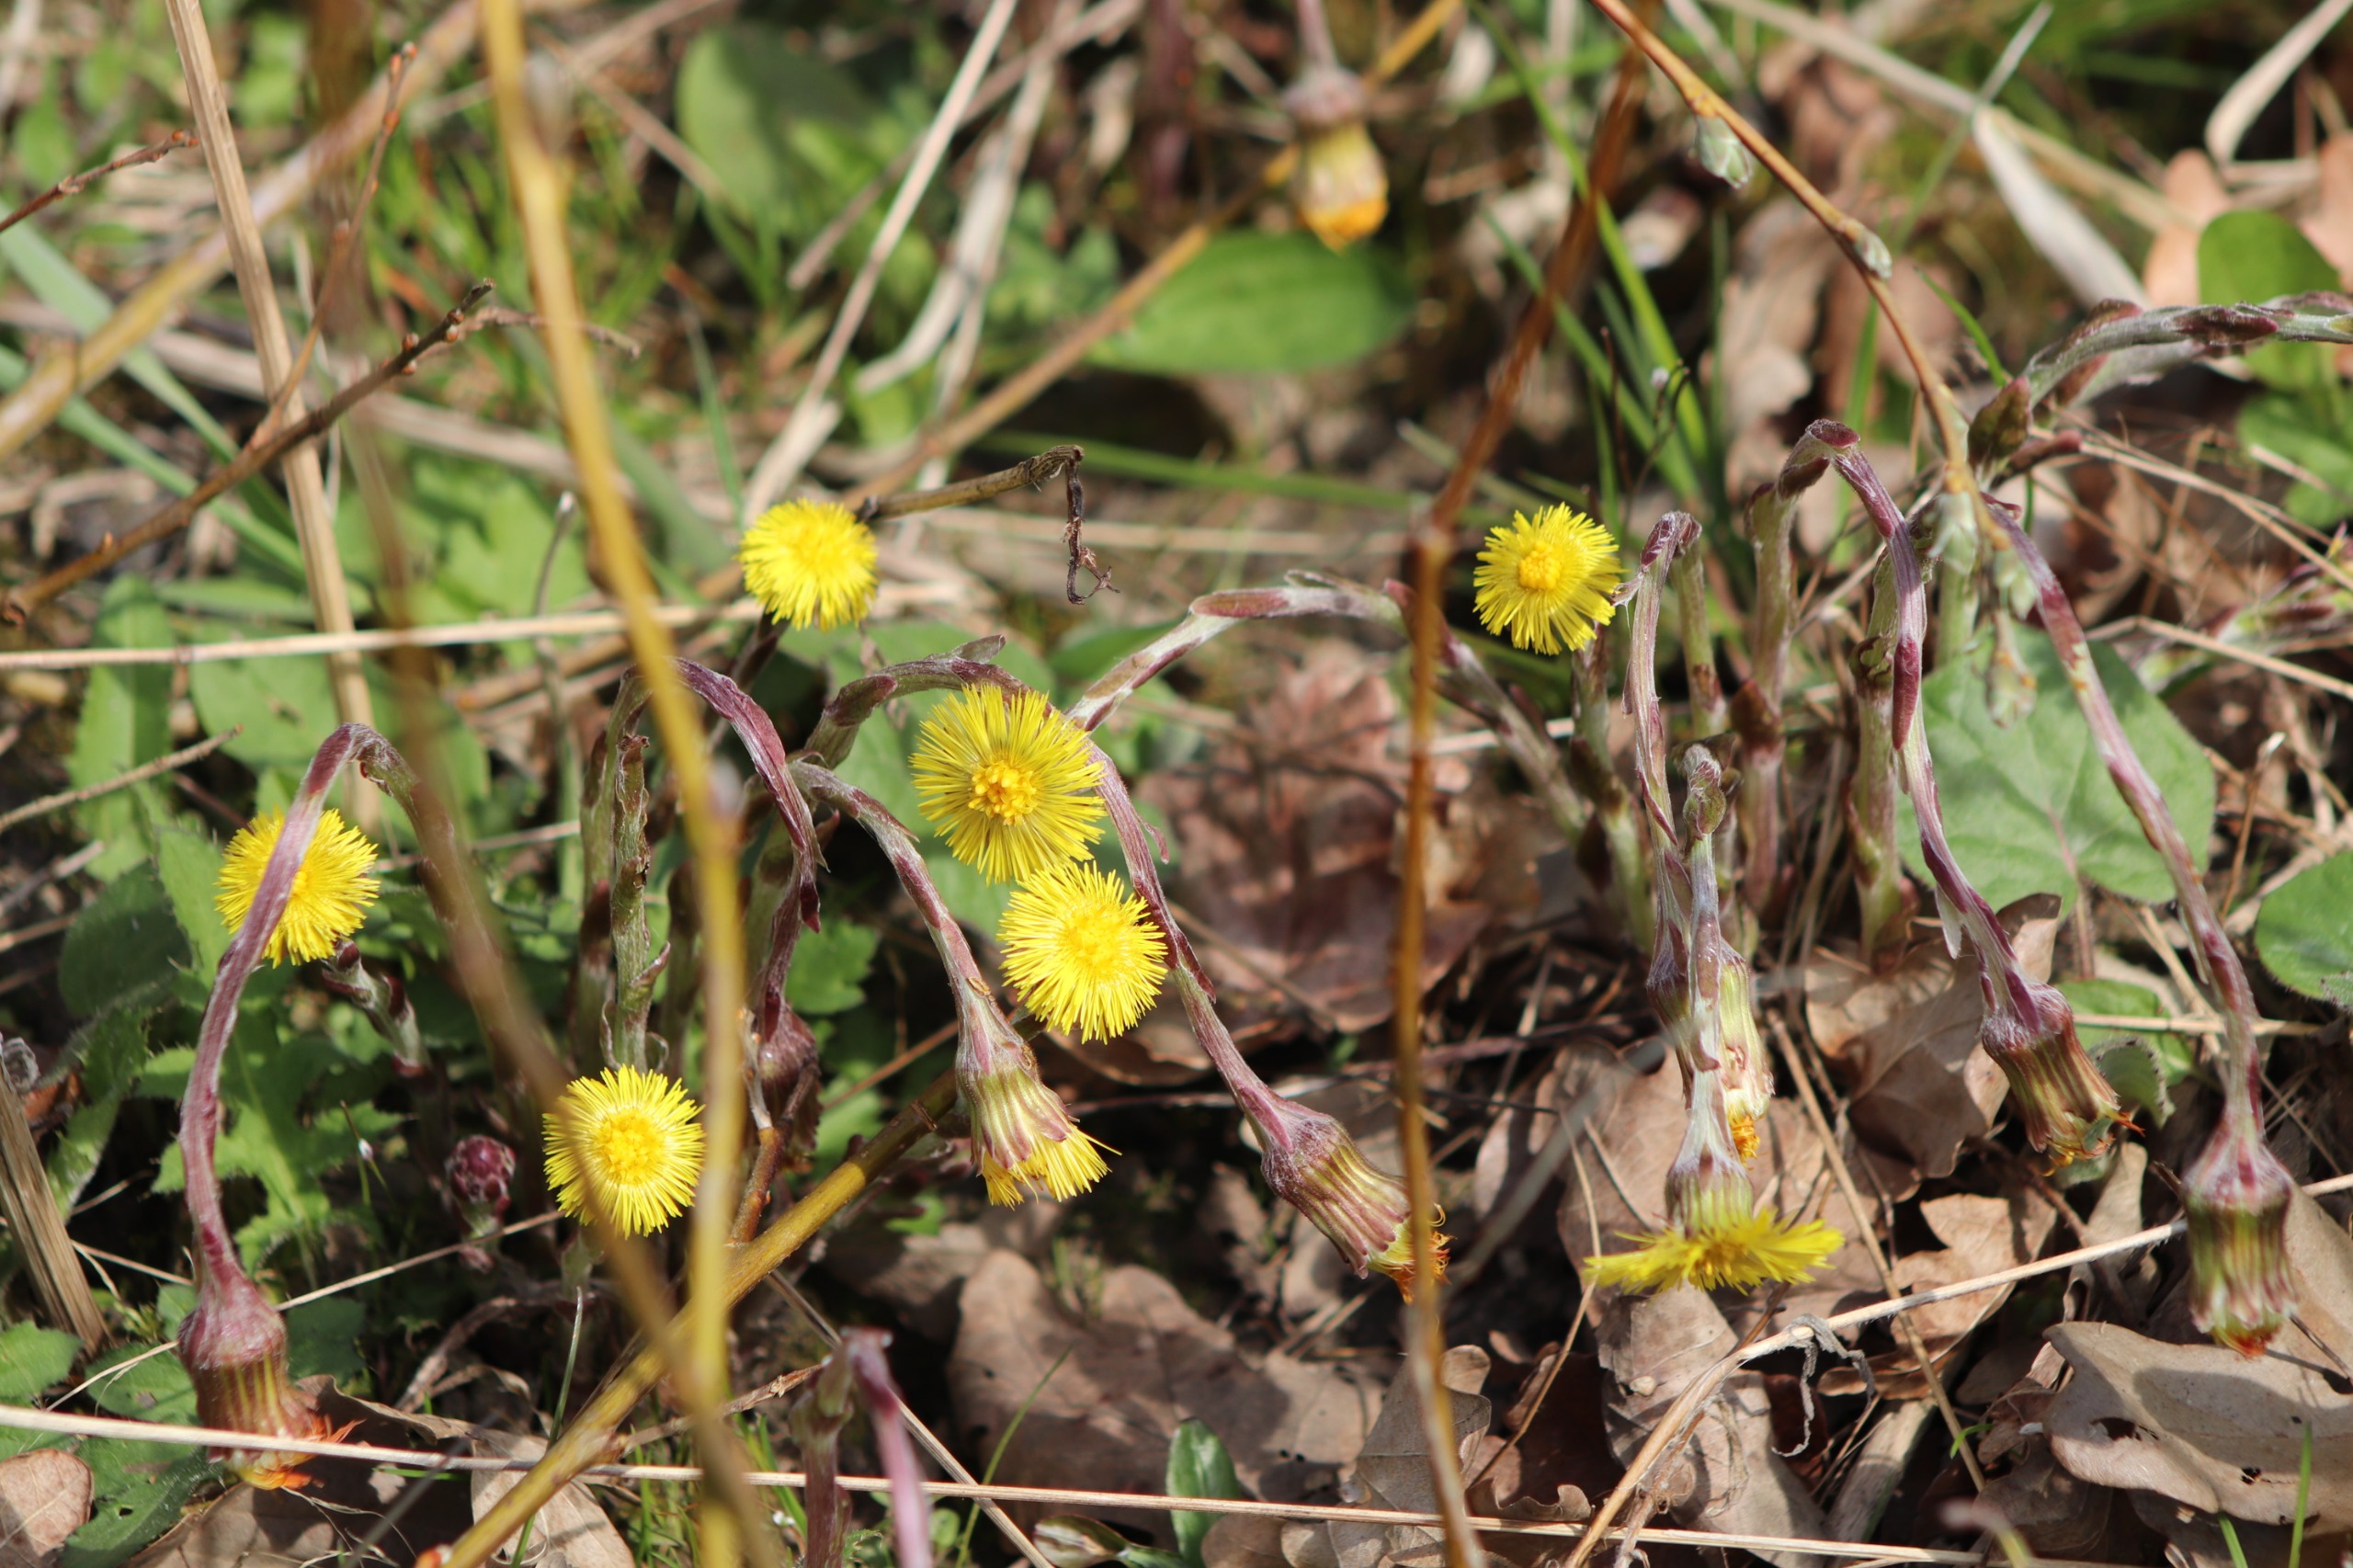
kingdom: Plantae
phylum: Tracheophyta
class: Magnoliopsida
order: Asterales
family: Asteraceae
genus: Tussilago
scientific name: Tussilago farfara
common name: Følfod
